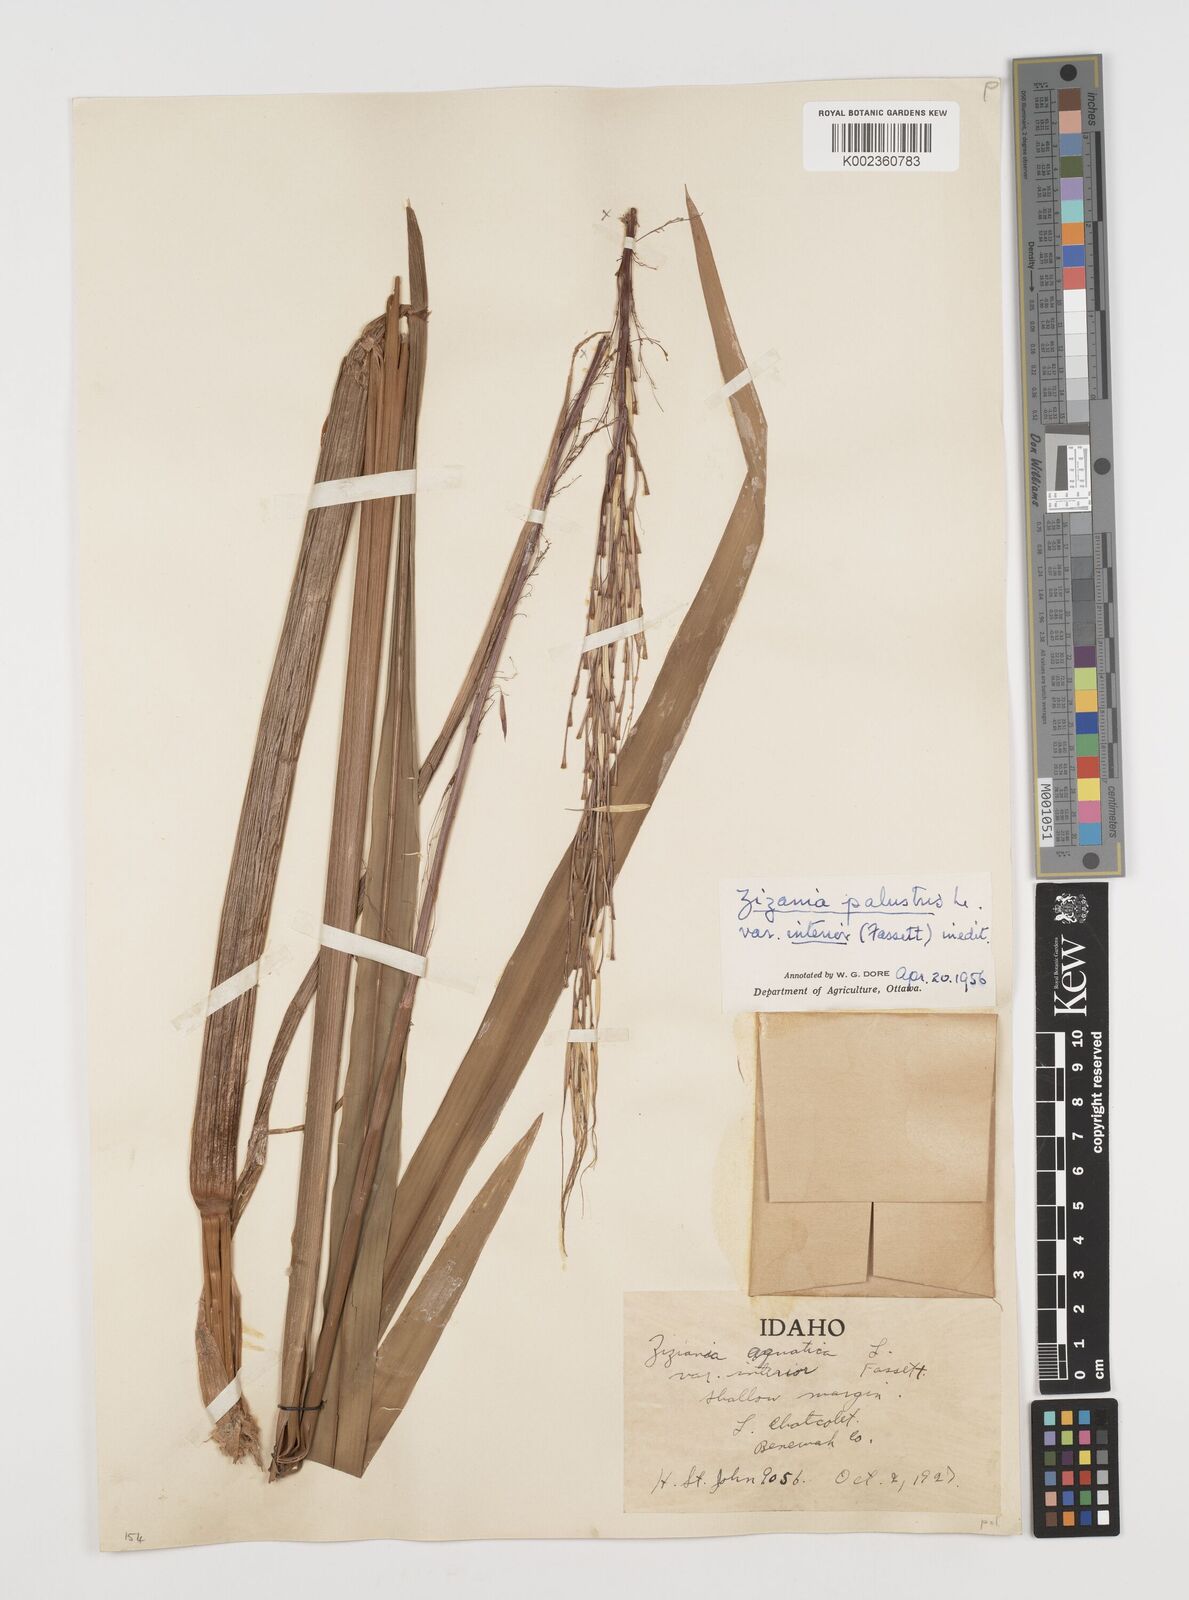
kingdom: Plantae
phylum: Tracheophyta
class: Liliopsida
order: Poales
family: Poaceae
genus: Zizania
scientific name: Zizania palustris
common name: Northern wild rice
